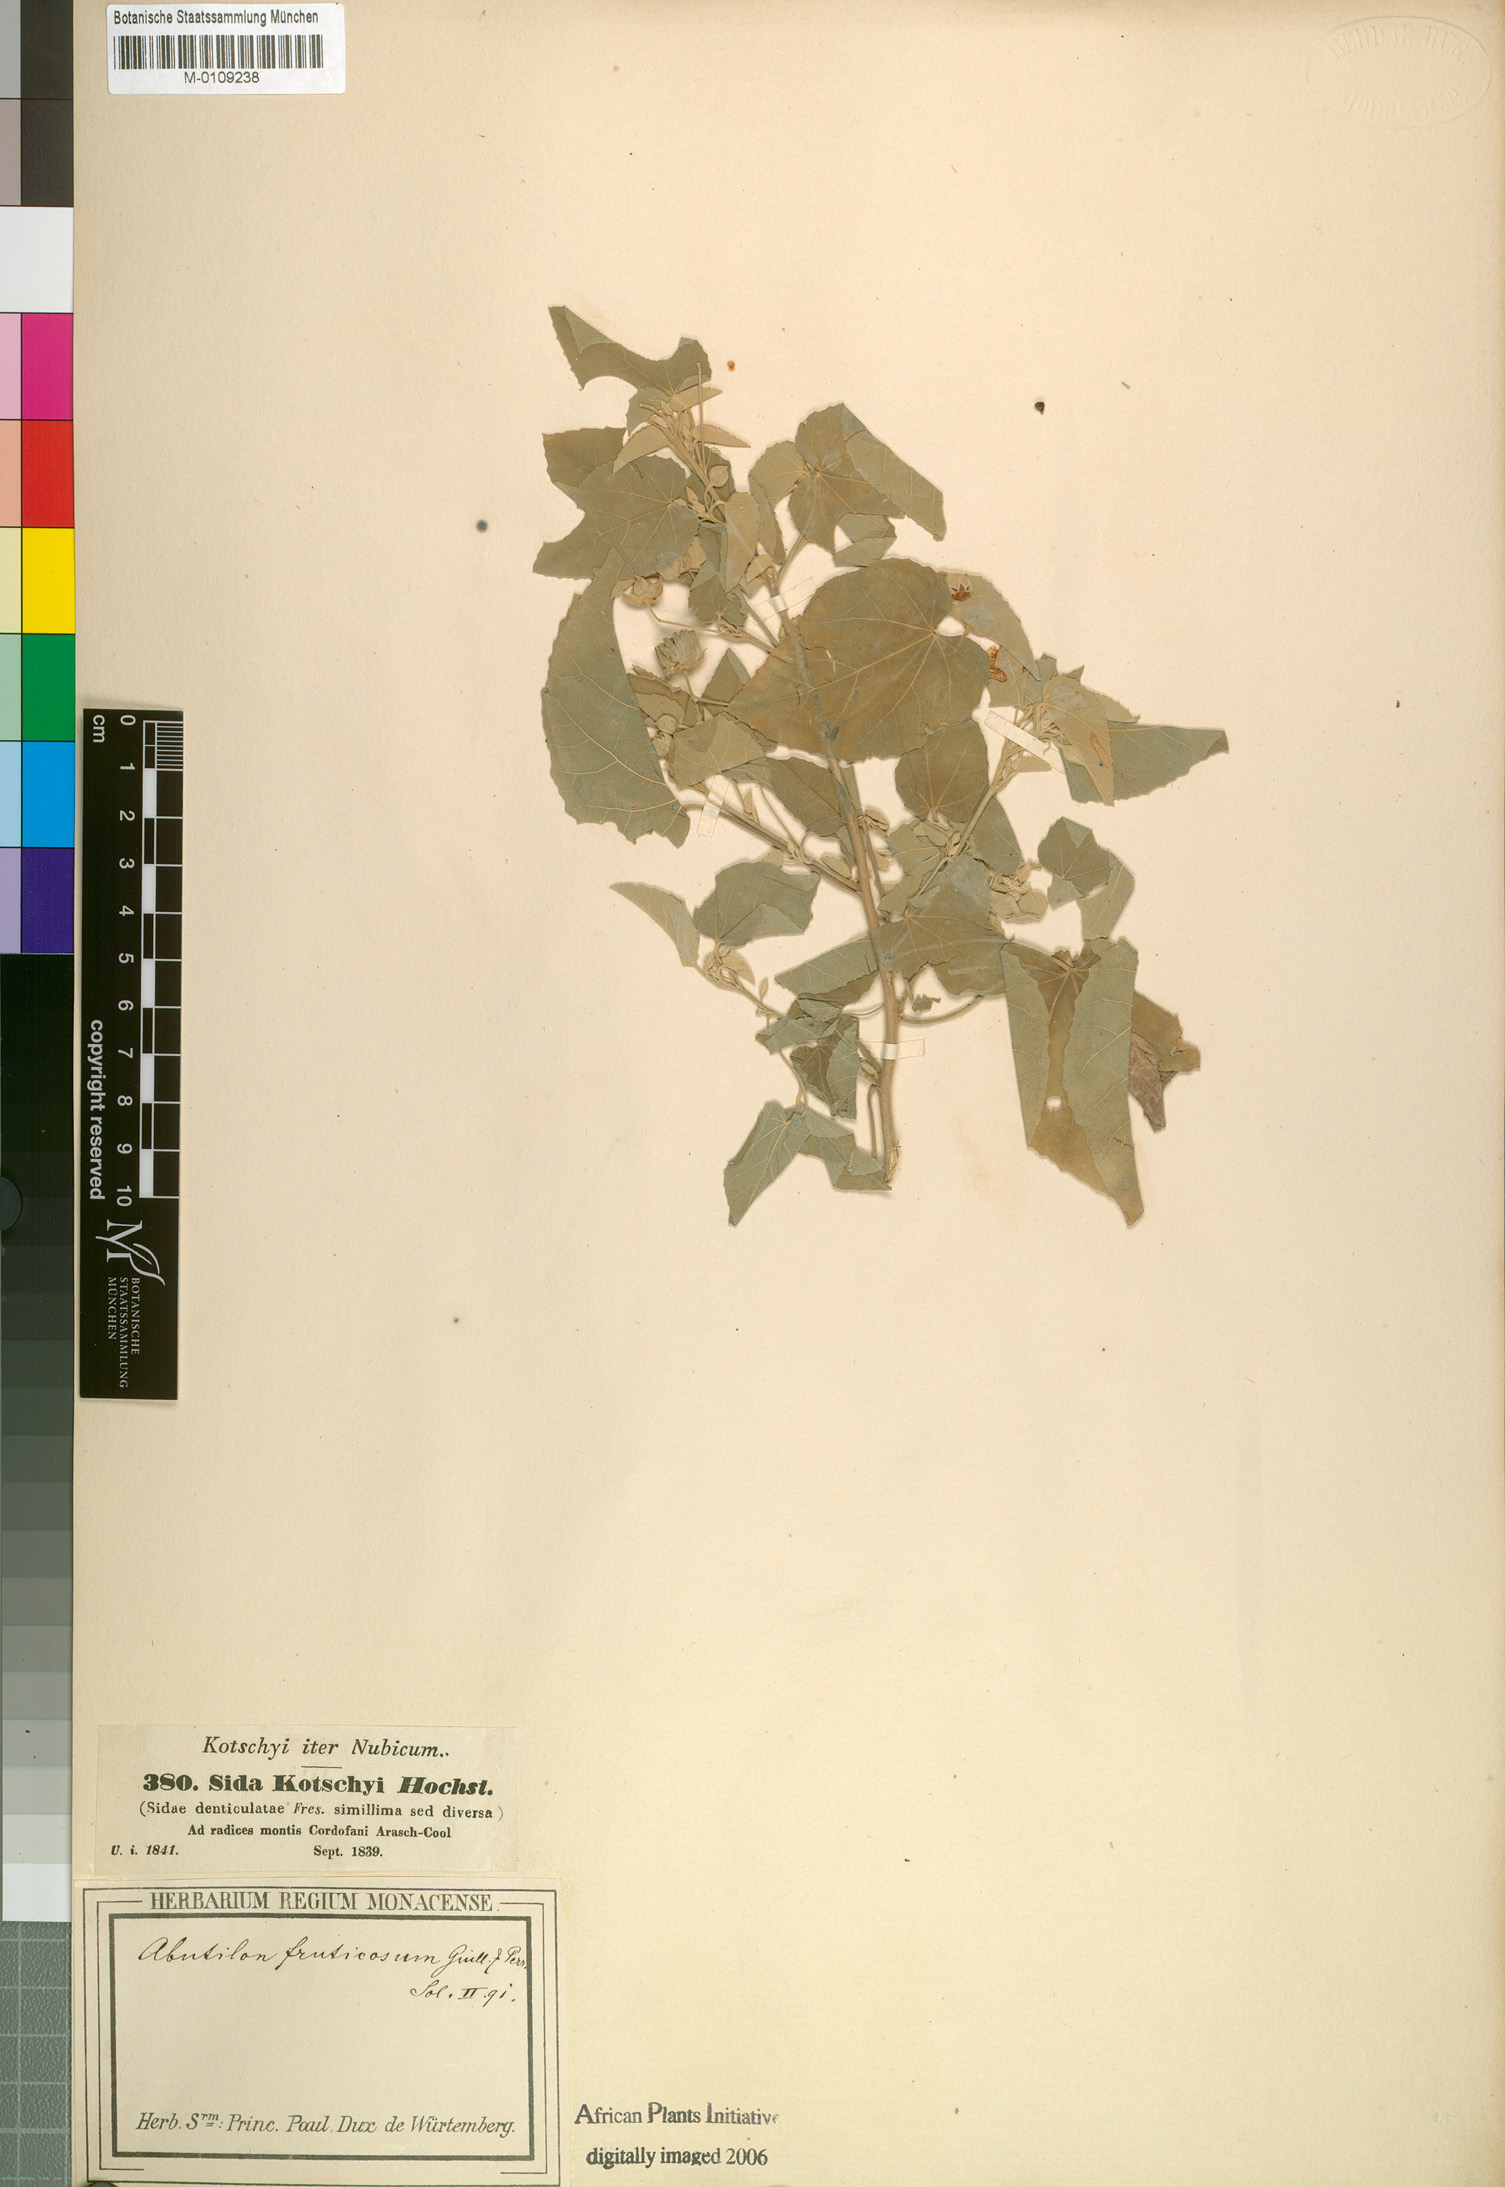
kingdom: Plantae
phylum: Tracheophyta
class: Magnoliopsida
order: Malvales
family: Malvaceae
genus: Abutilon
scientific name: Abutilon fruticosum
